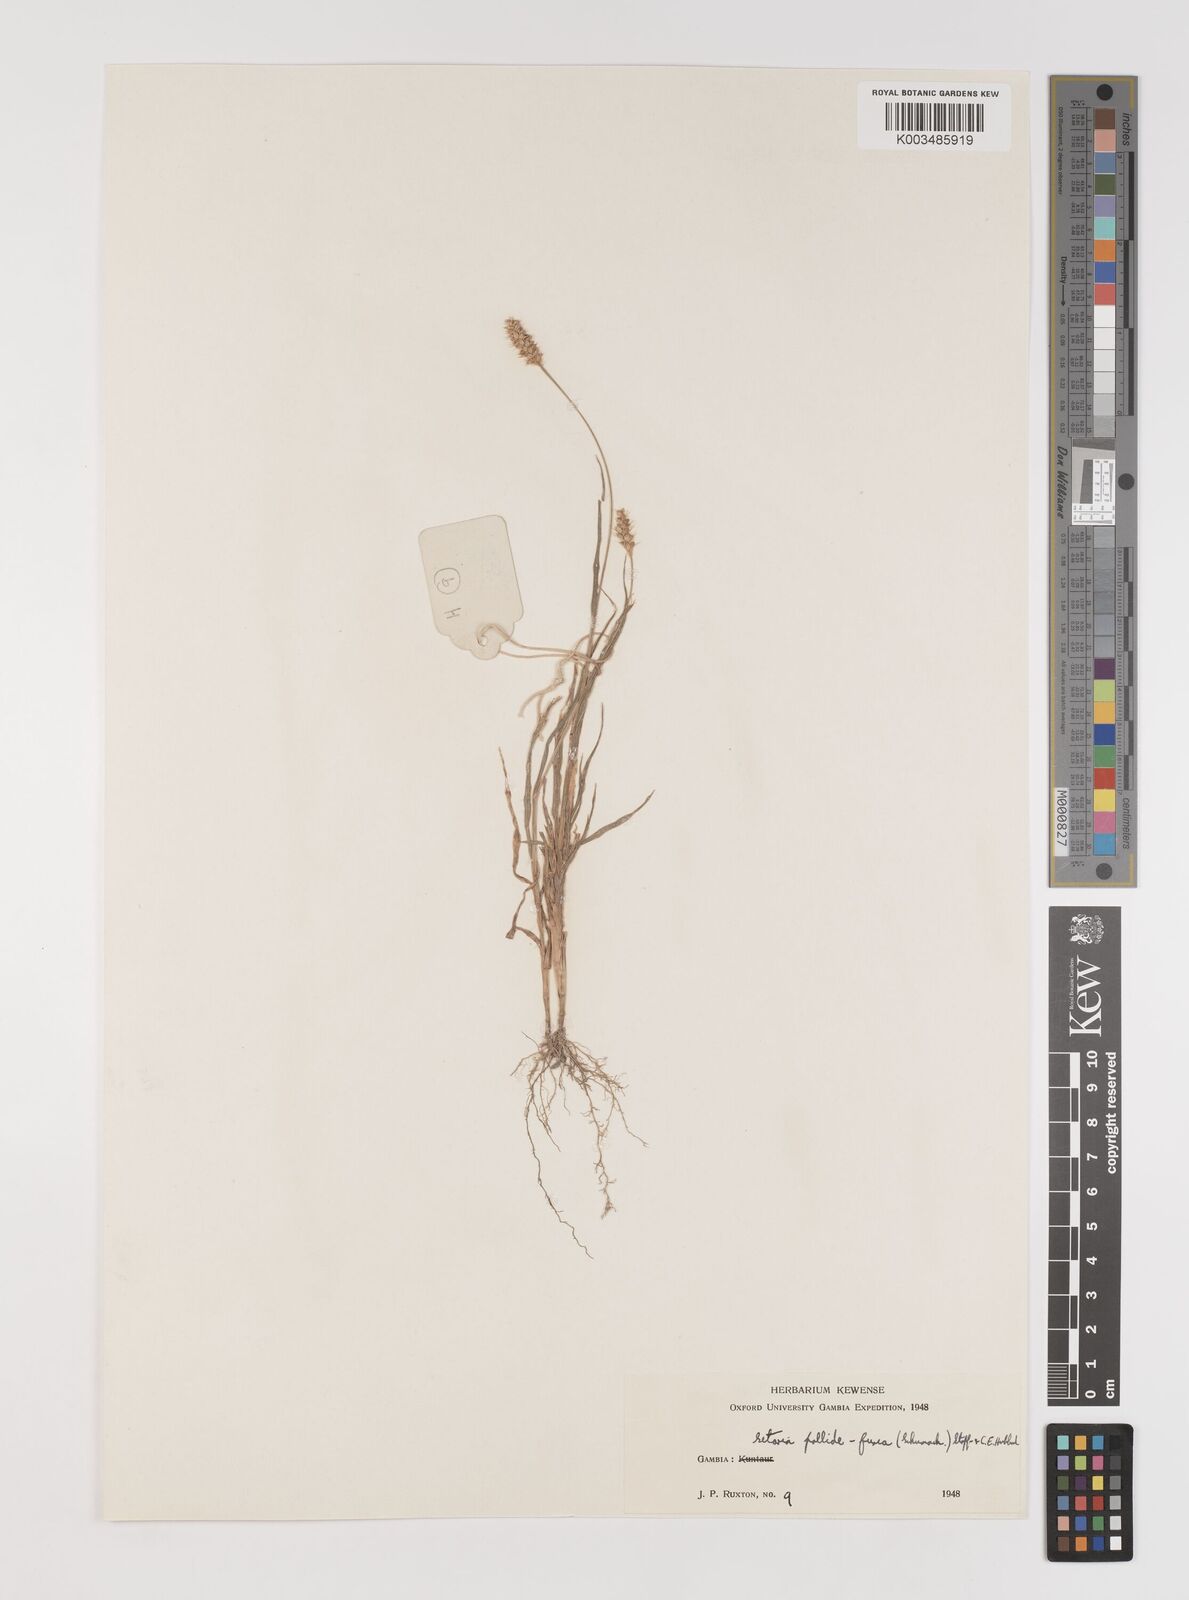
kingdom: Plantae
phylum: Tracheophyta
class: Liliopsida
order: Poales
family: Poaceae
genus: Setaria
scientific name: Setaria pumila
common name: Yellow bristle-grass
